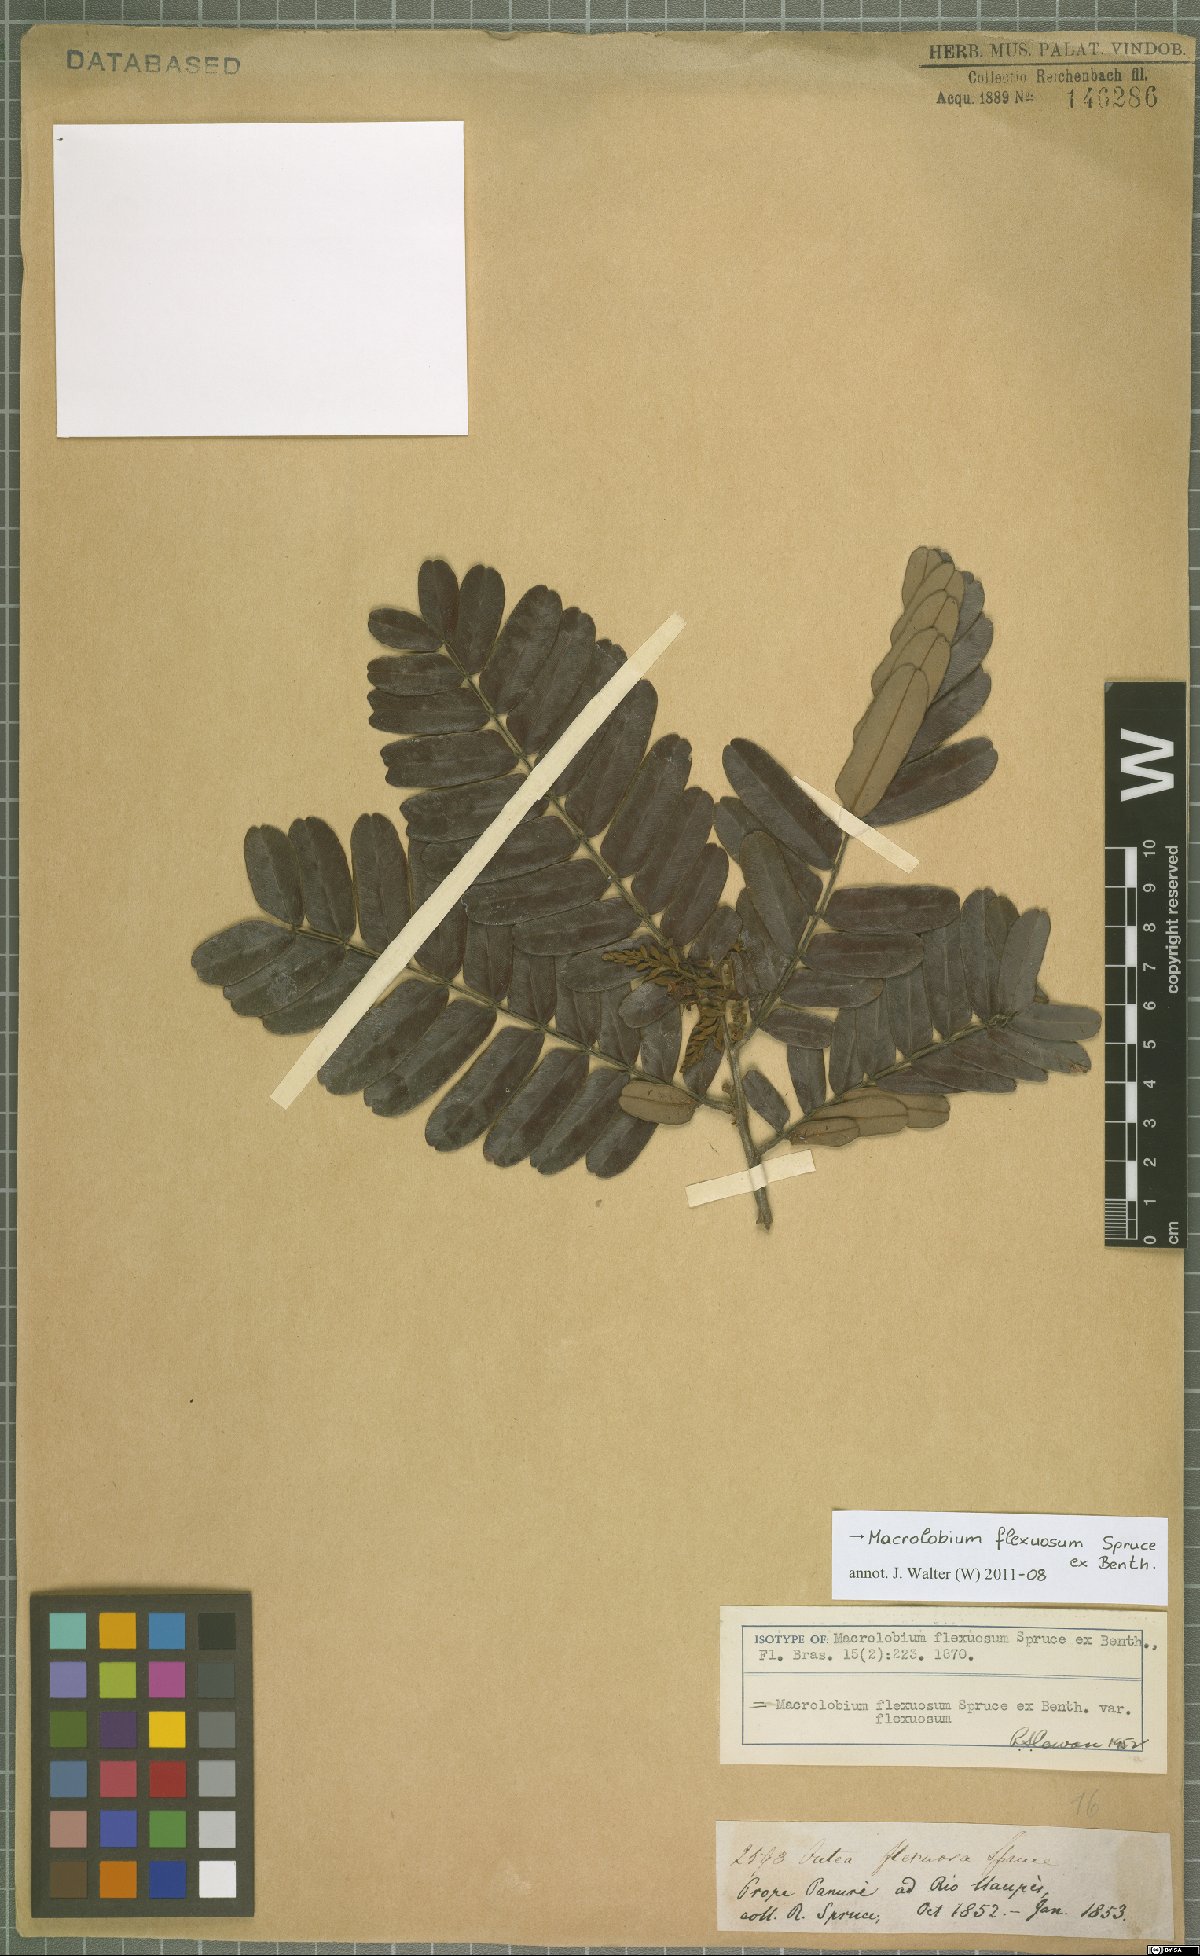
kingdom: Plantae
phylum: Tracheophyta
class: Magnoliopsida
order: Fabales
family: Fabaceae
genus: Macrolobium
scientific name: Macrolobium flexuosum
